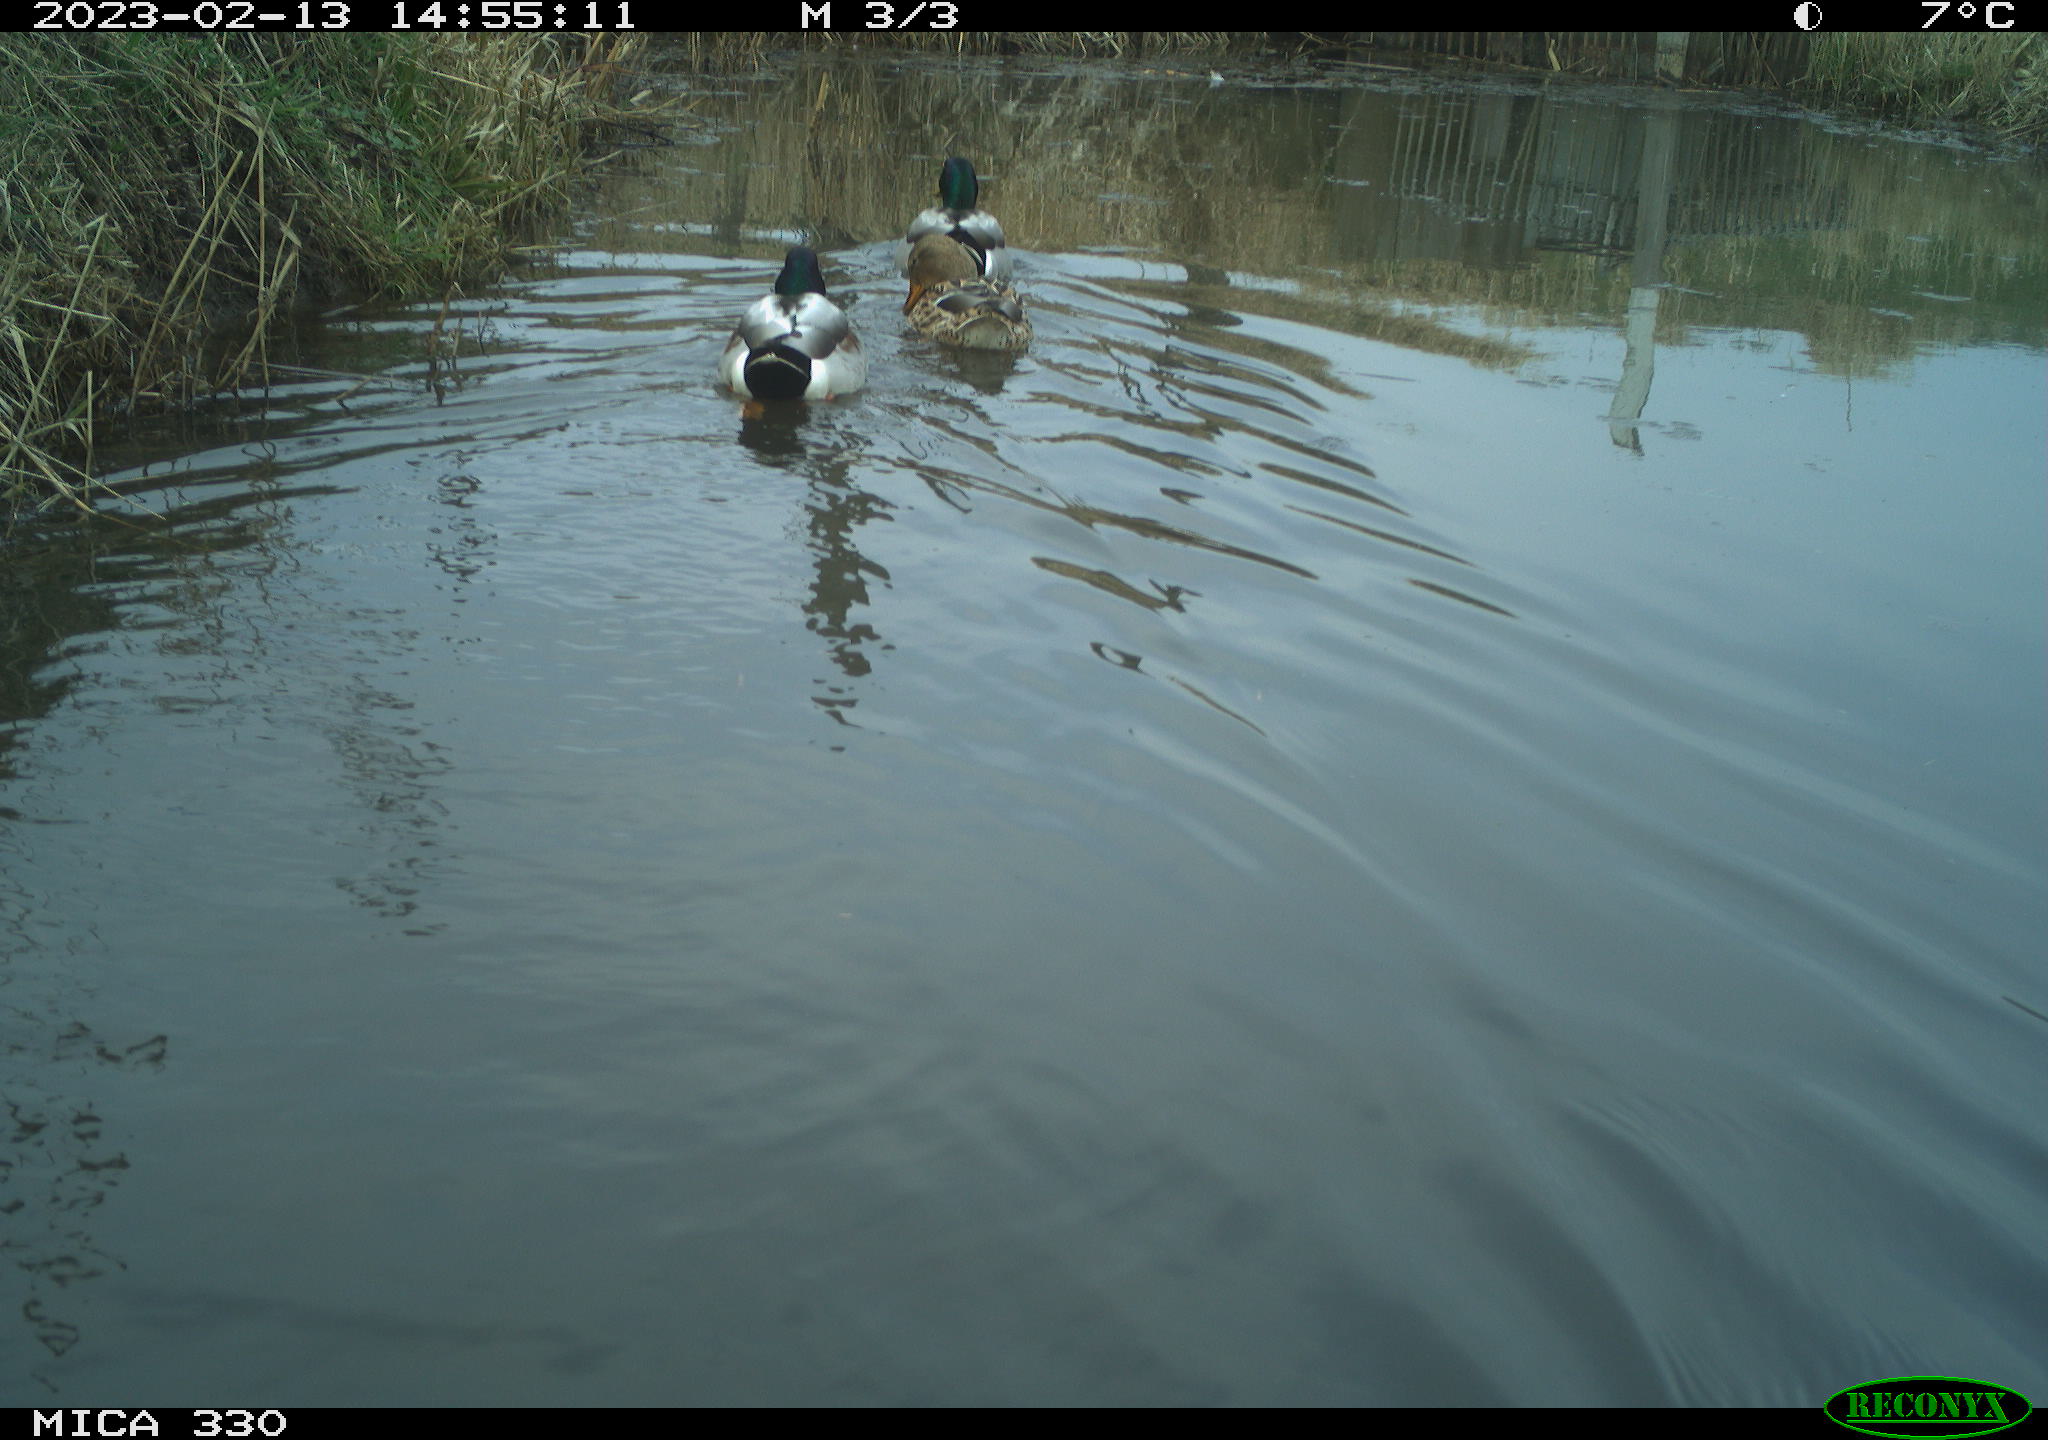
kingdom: Animalia
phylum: Chordata
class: Aves
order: Anseriformes
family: Anatidae
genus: Anas
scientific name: Anas
